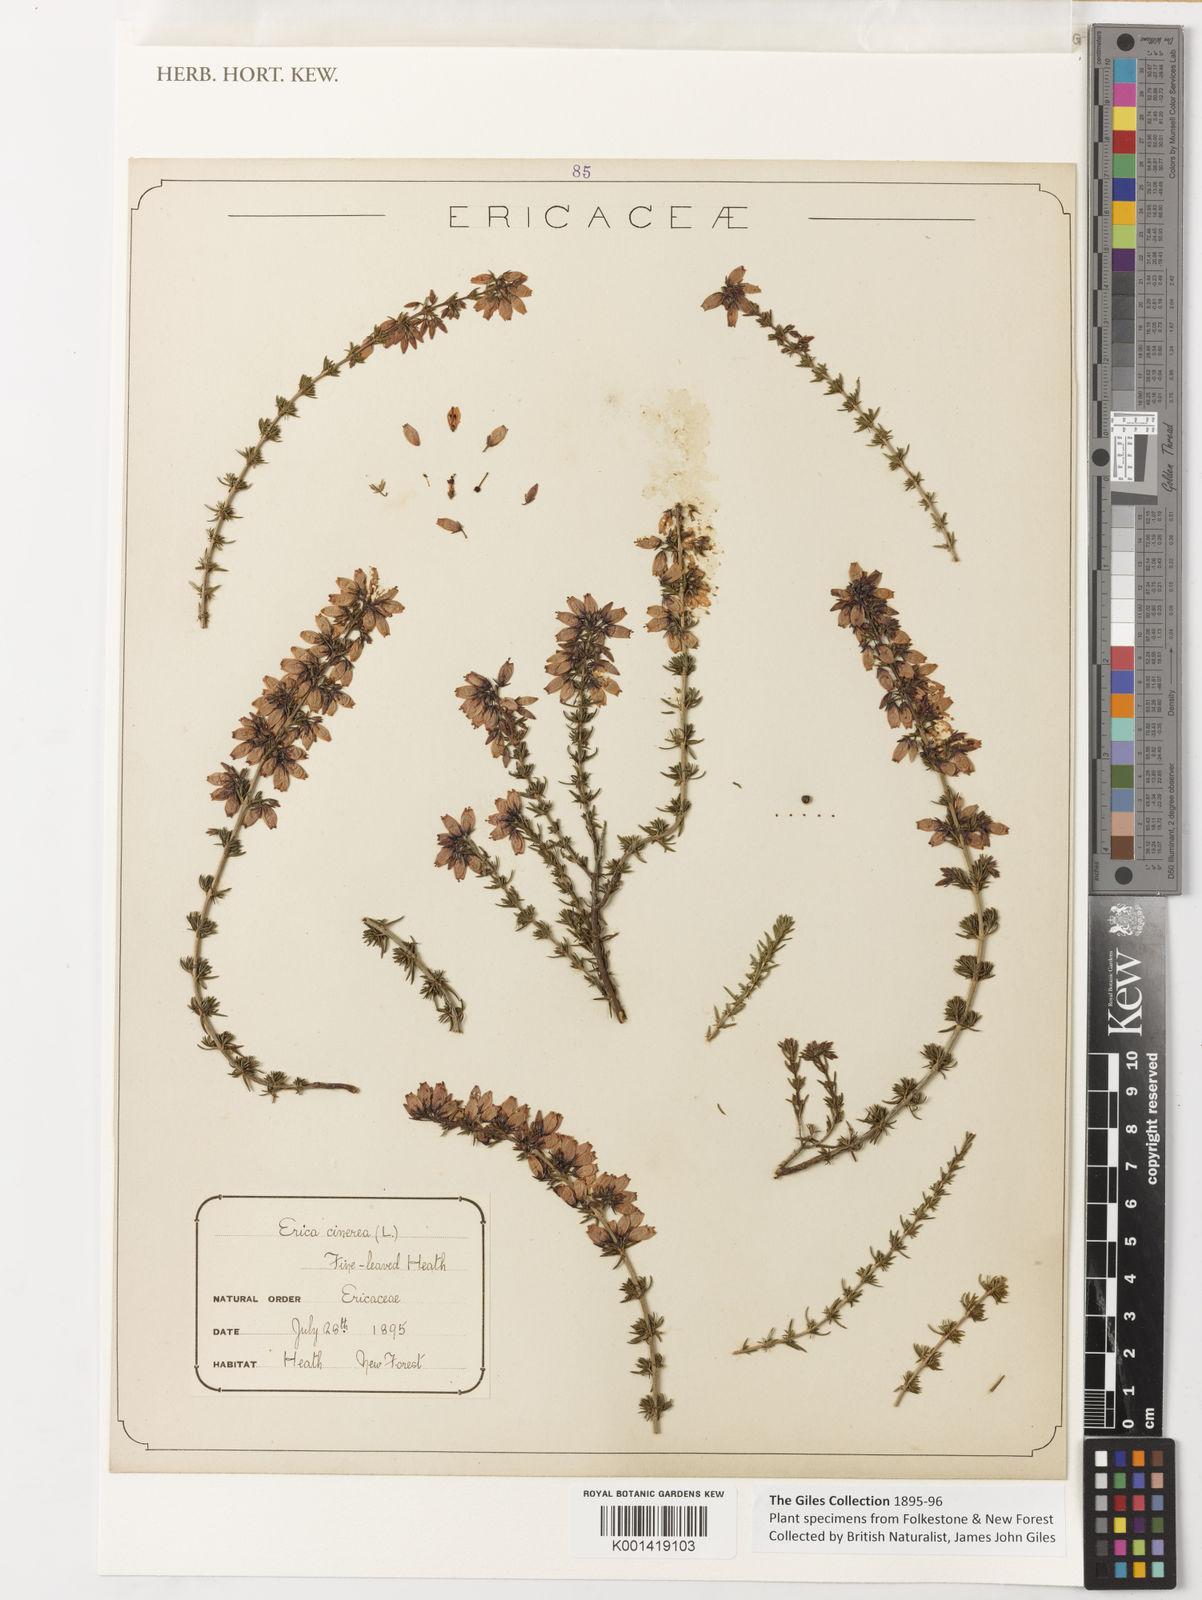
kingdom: Plantae
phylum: Tracheophyta
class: Magnoliopsida
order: Ericales
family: Ericaceae
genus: Erica
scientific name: Erica
